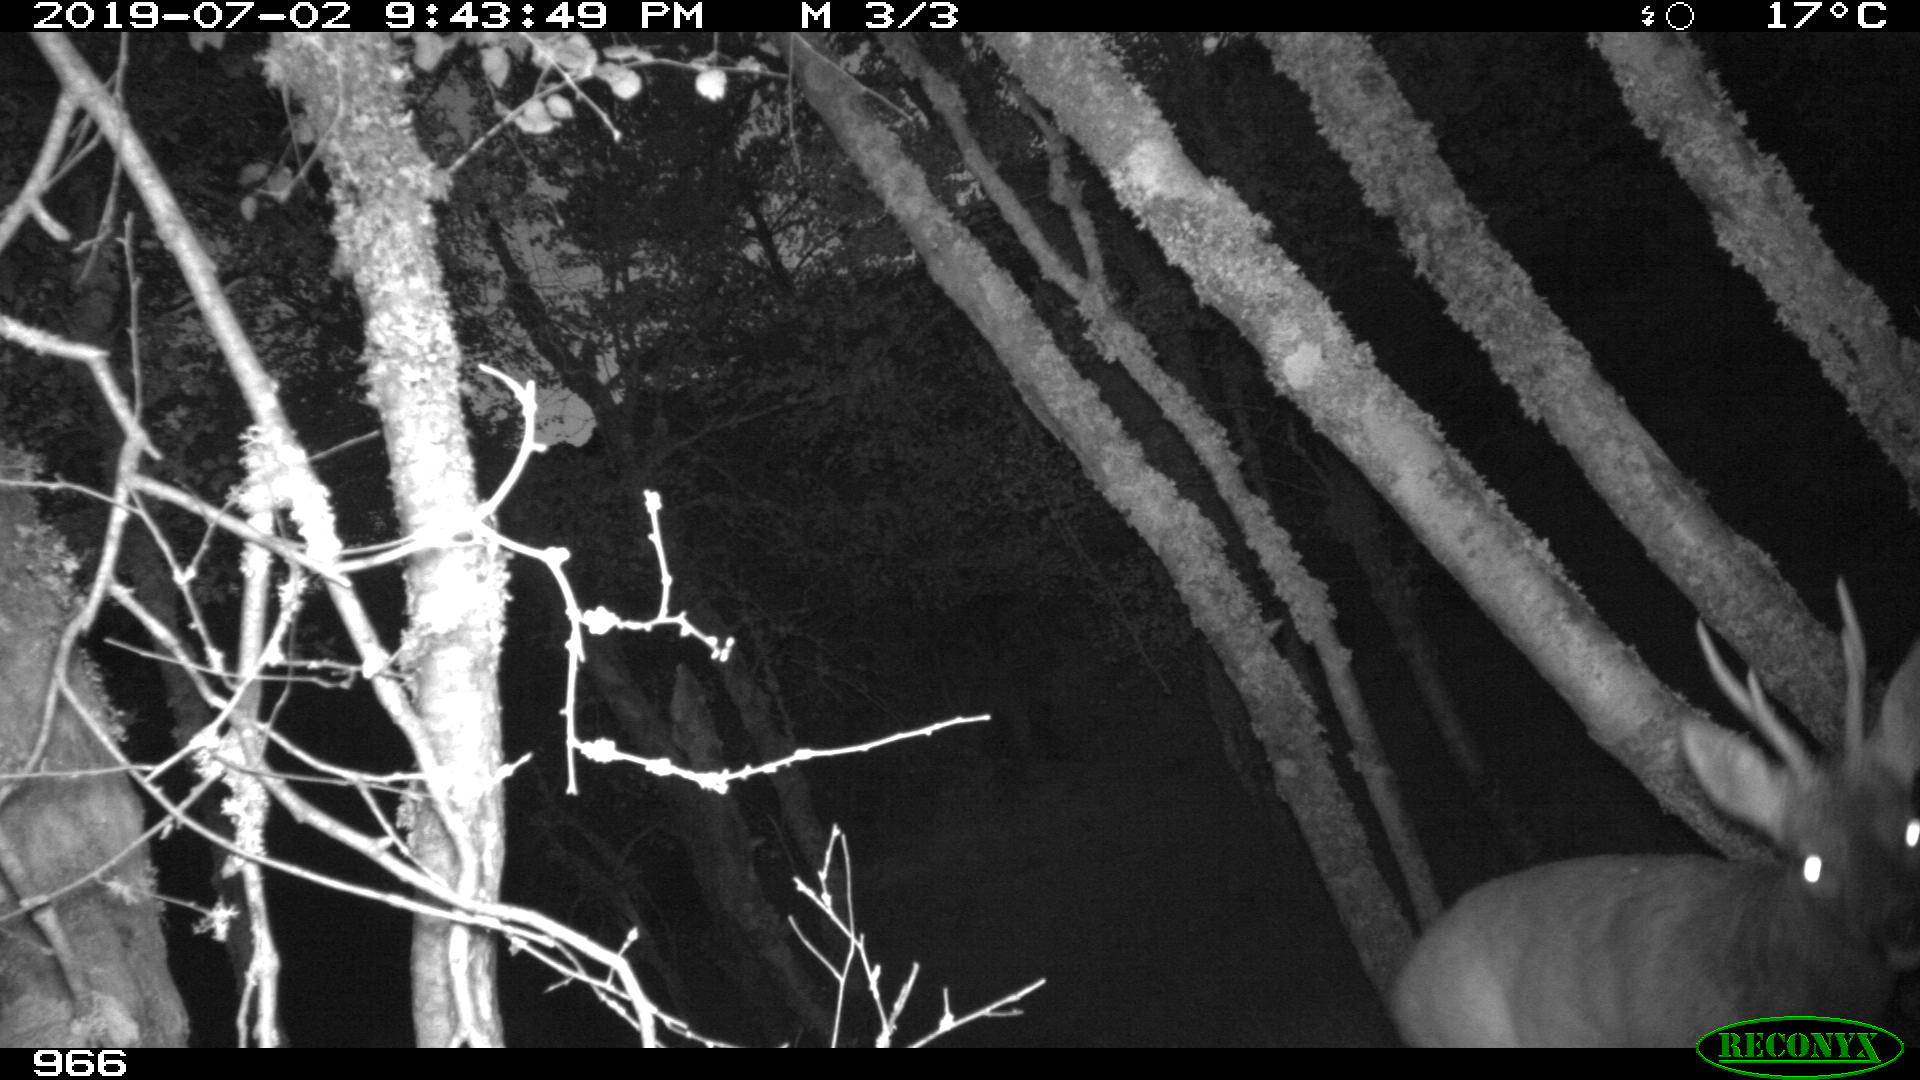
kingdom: Animalia
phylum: Chordata
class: Mammalia
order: Artiodactyla
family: Cervidae
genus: Capreolus
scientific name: Capreolus capreolus
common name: Western roe deer
